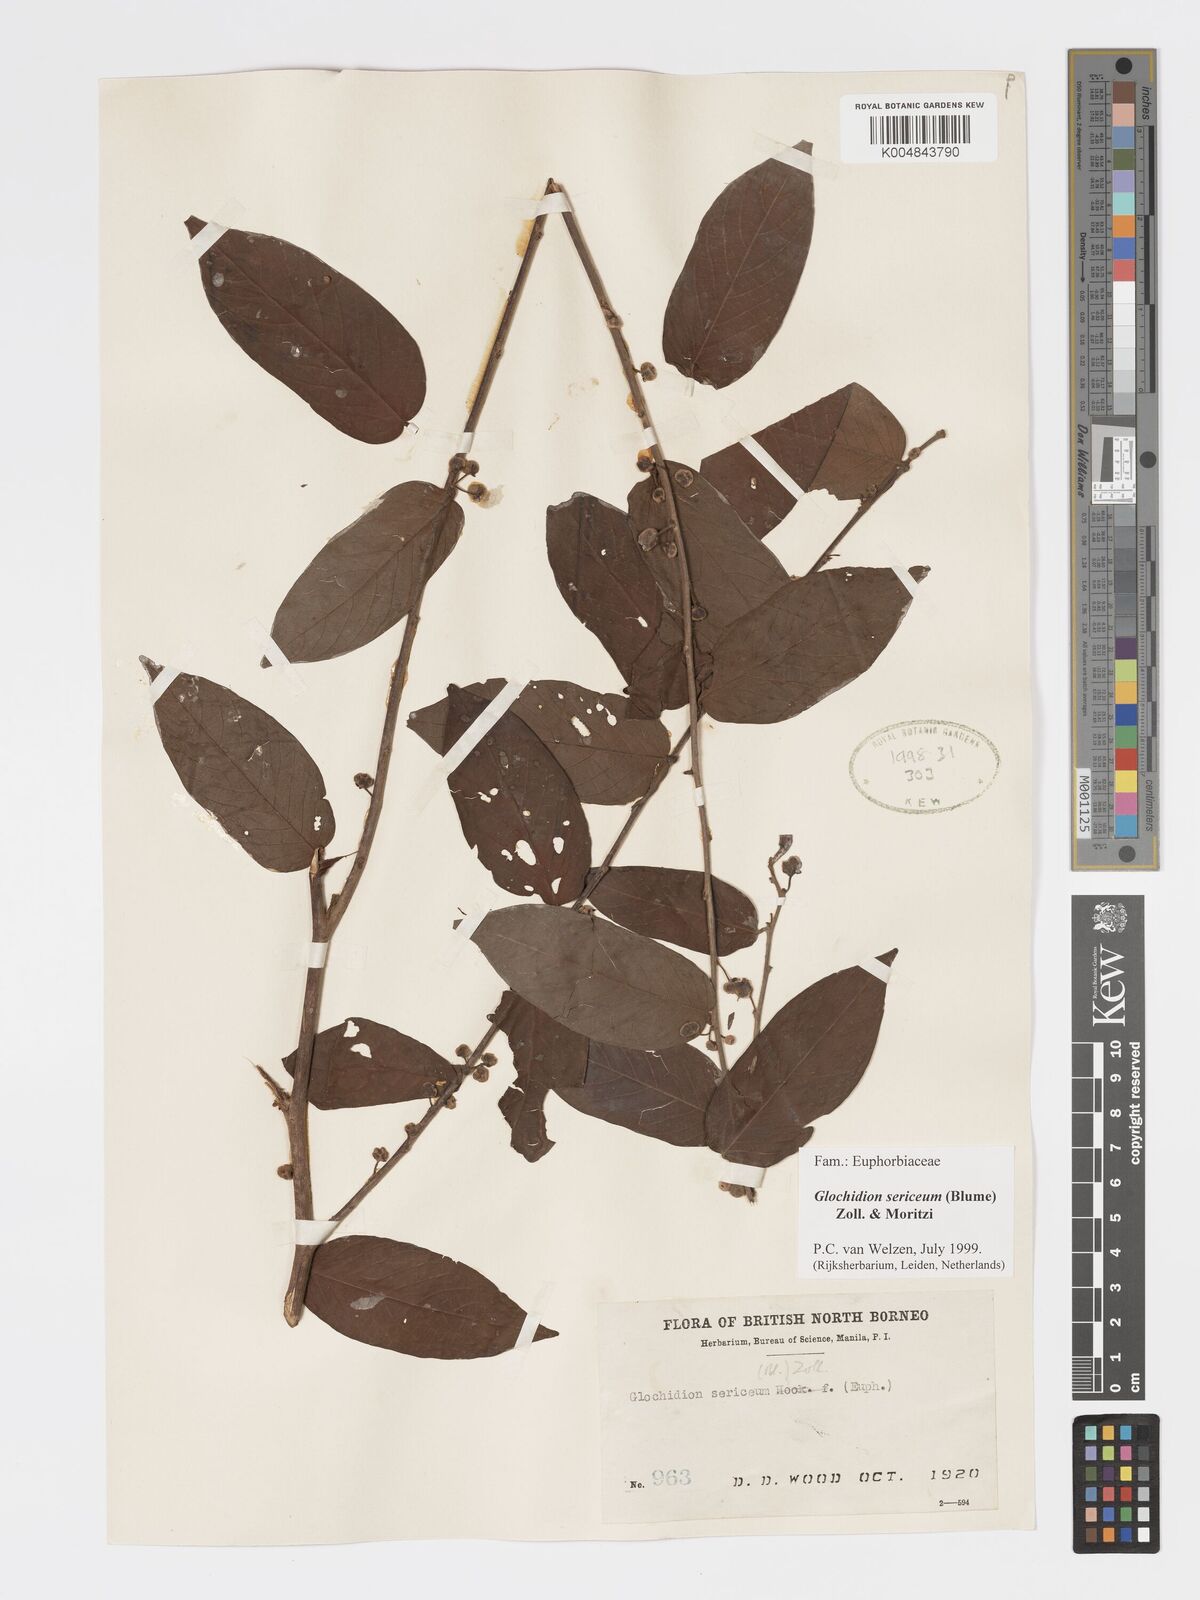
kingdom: Plantae
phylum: Tracheophyta
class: Magnoliopsida
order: Malpighiales
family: Phyllanthaceae
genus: Glochidion
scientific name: Glochidion sericeum
